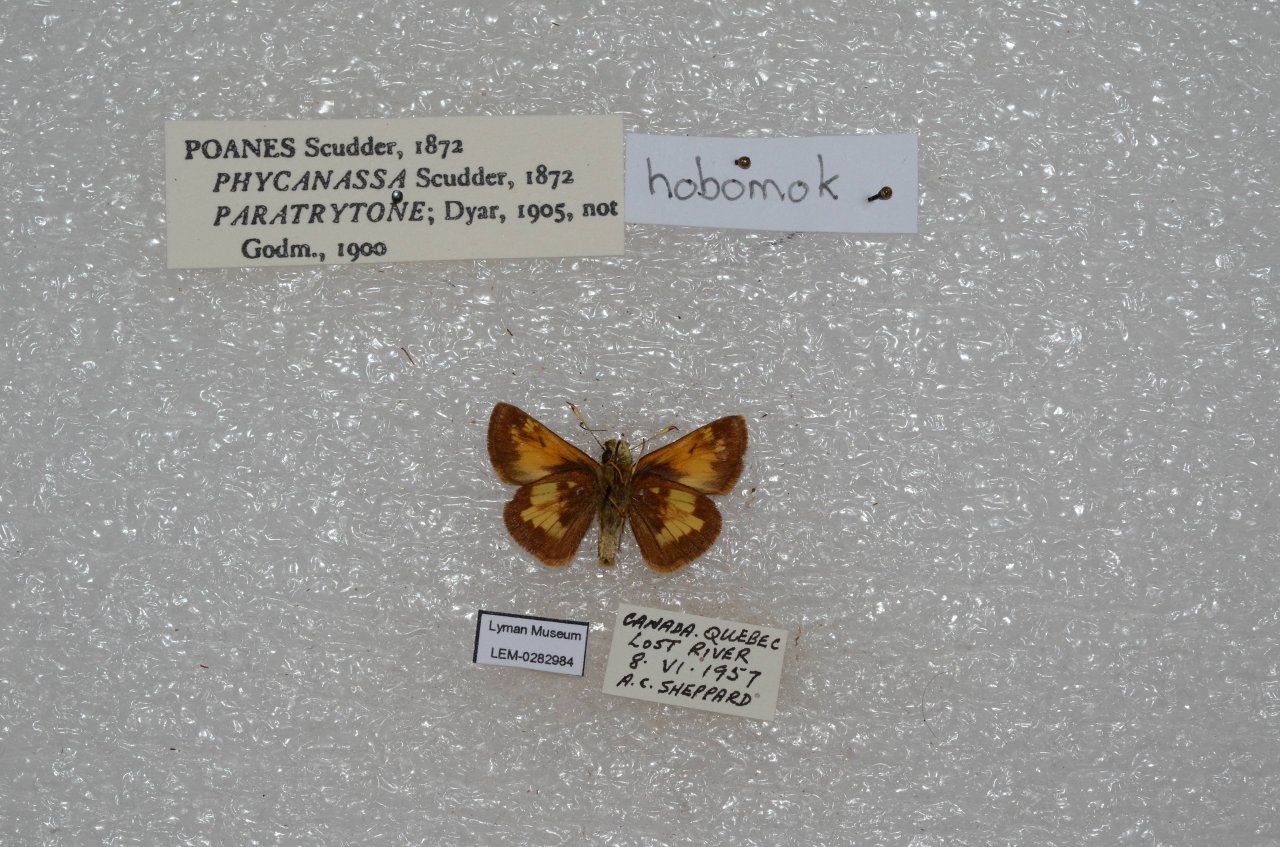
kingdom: Animalia
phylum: Arthropoda
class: Insecta
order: Lepidoptera
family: Hesperiidae
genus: Lon
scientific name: Lon hobomok
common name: Hobomok Skipper
